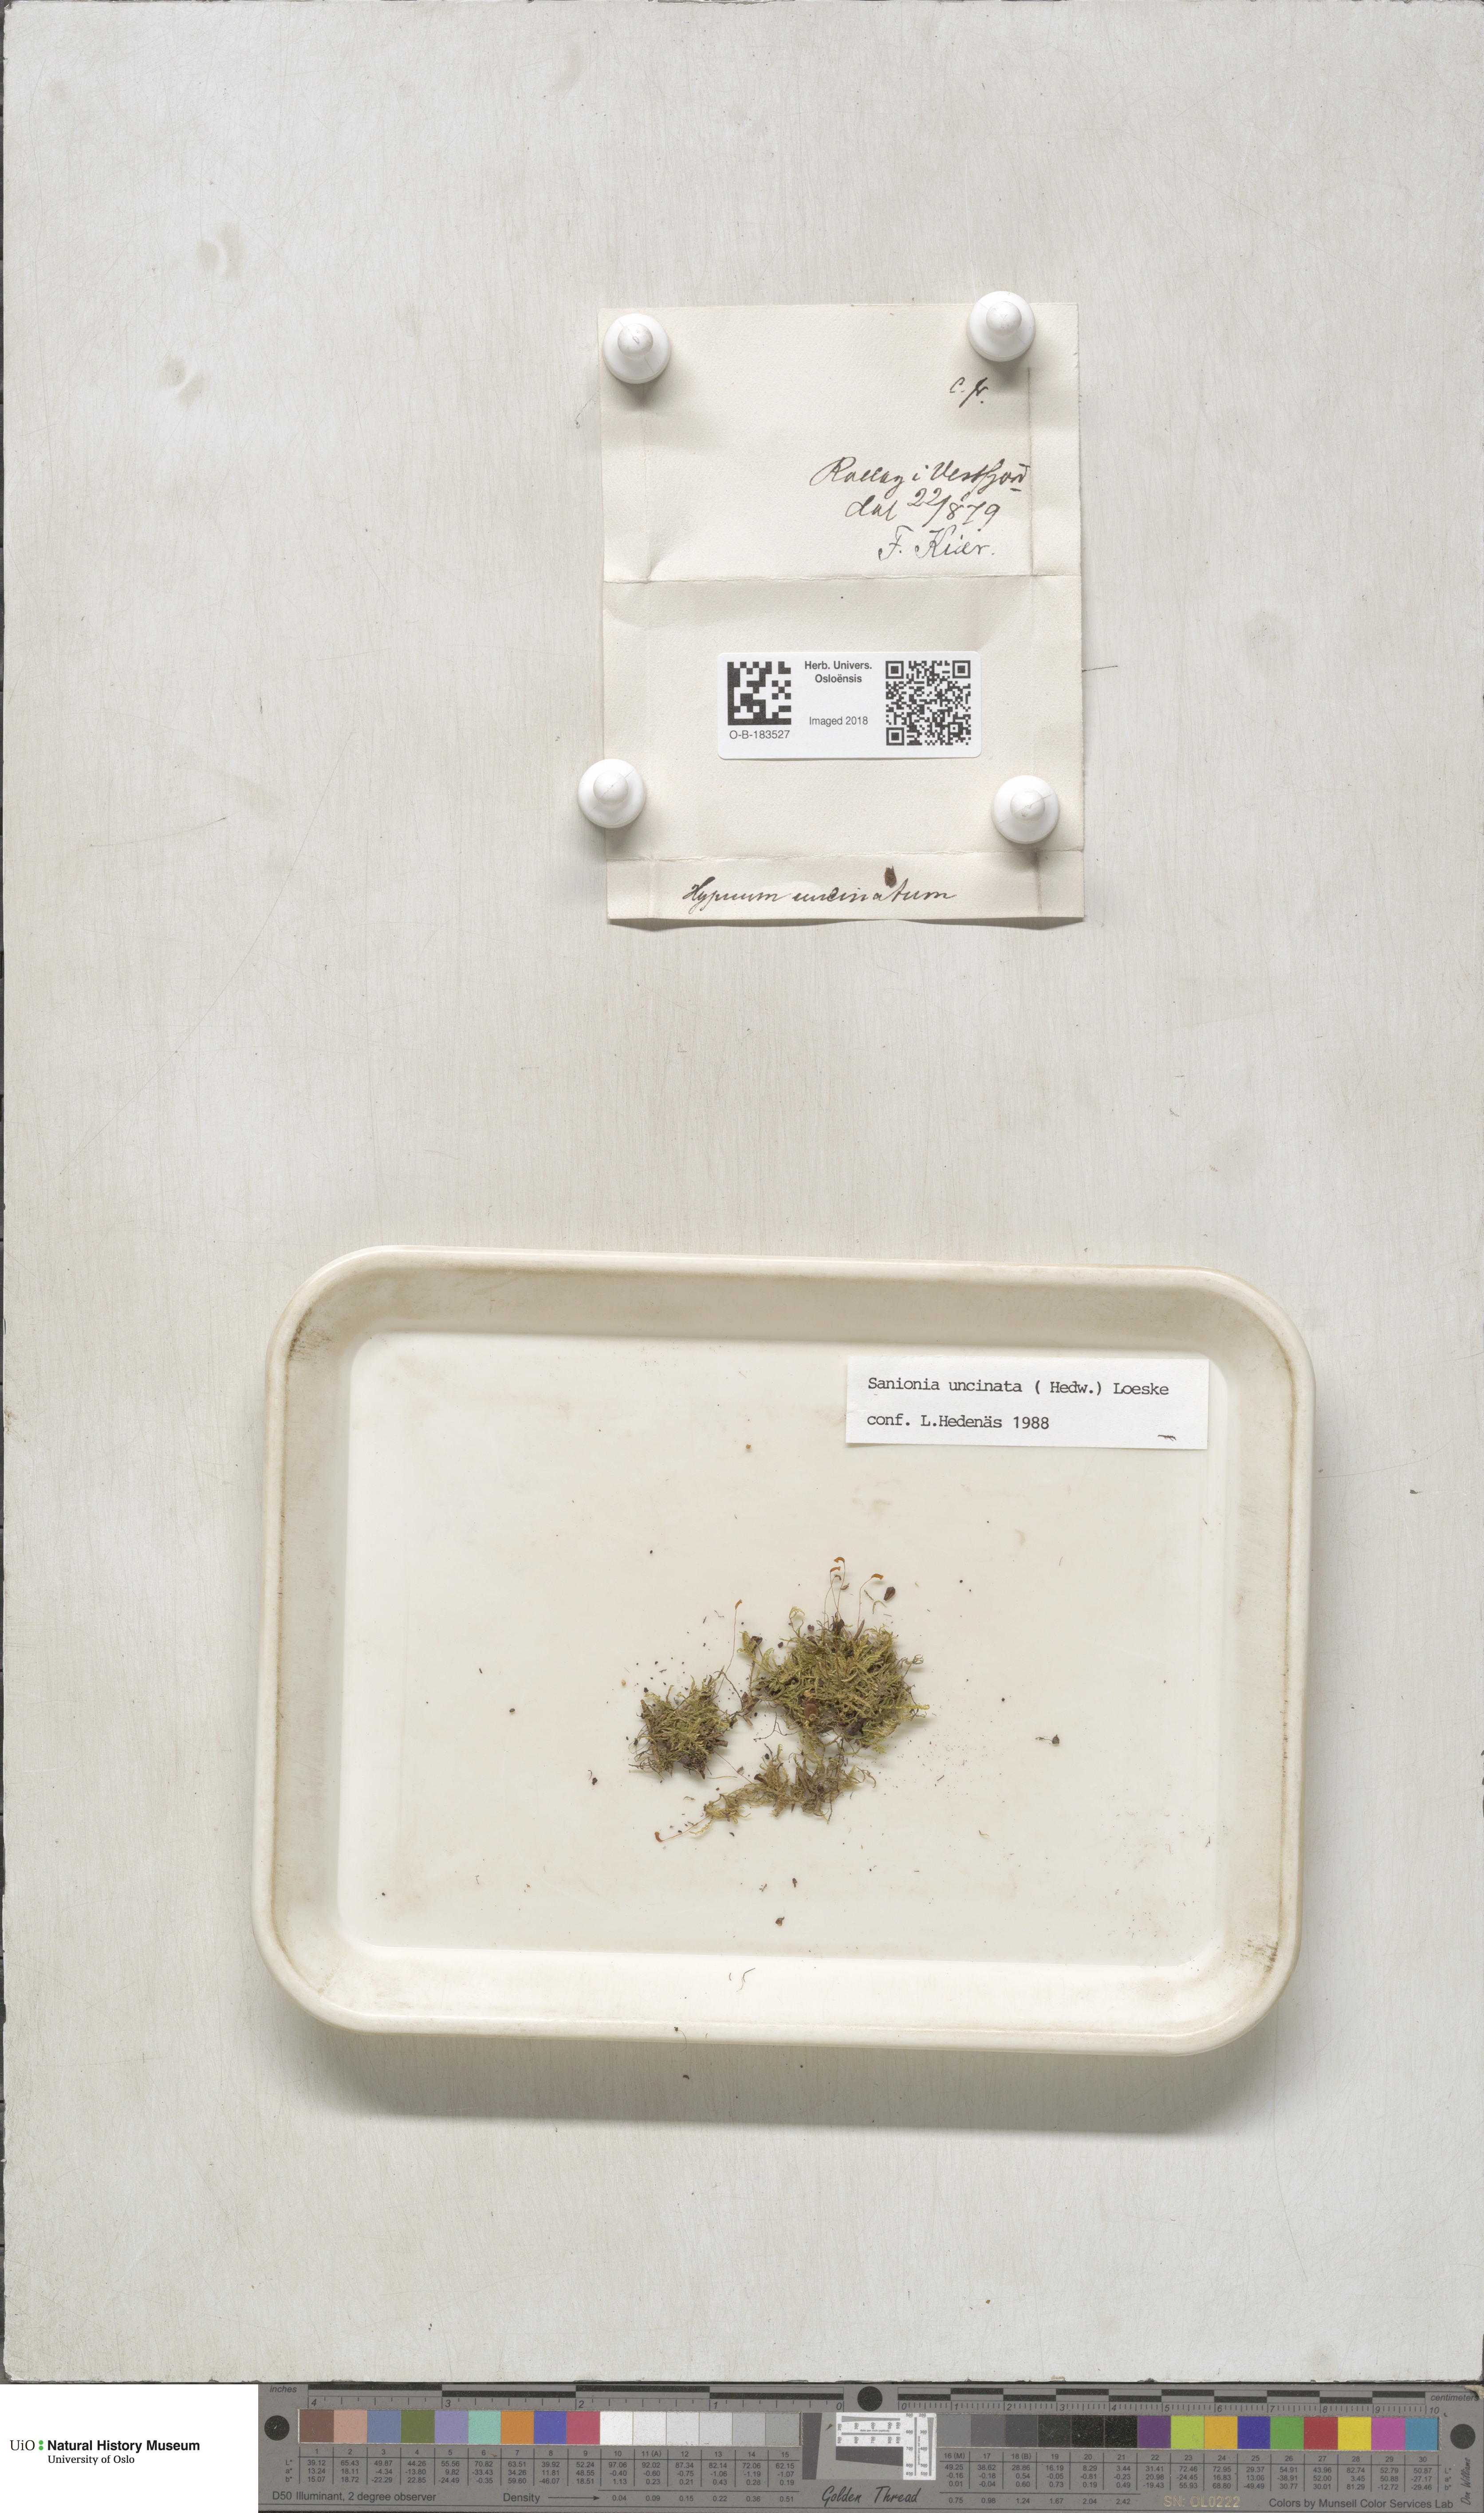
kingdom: Plantae
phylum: Bryophyta
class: Bryopsida
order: Hypnales
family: Scorpidiaceae
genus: Sanionia
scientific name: Sanionia uncinata
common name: Sickle moss
